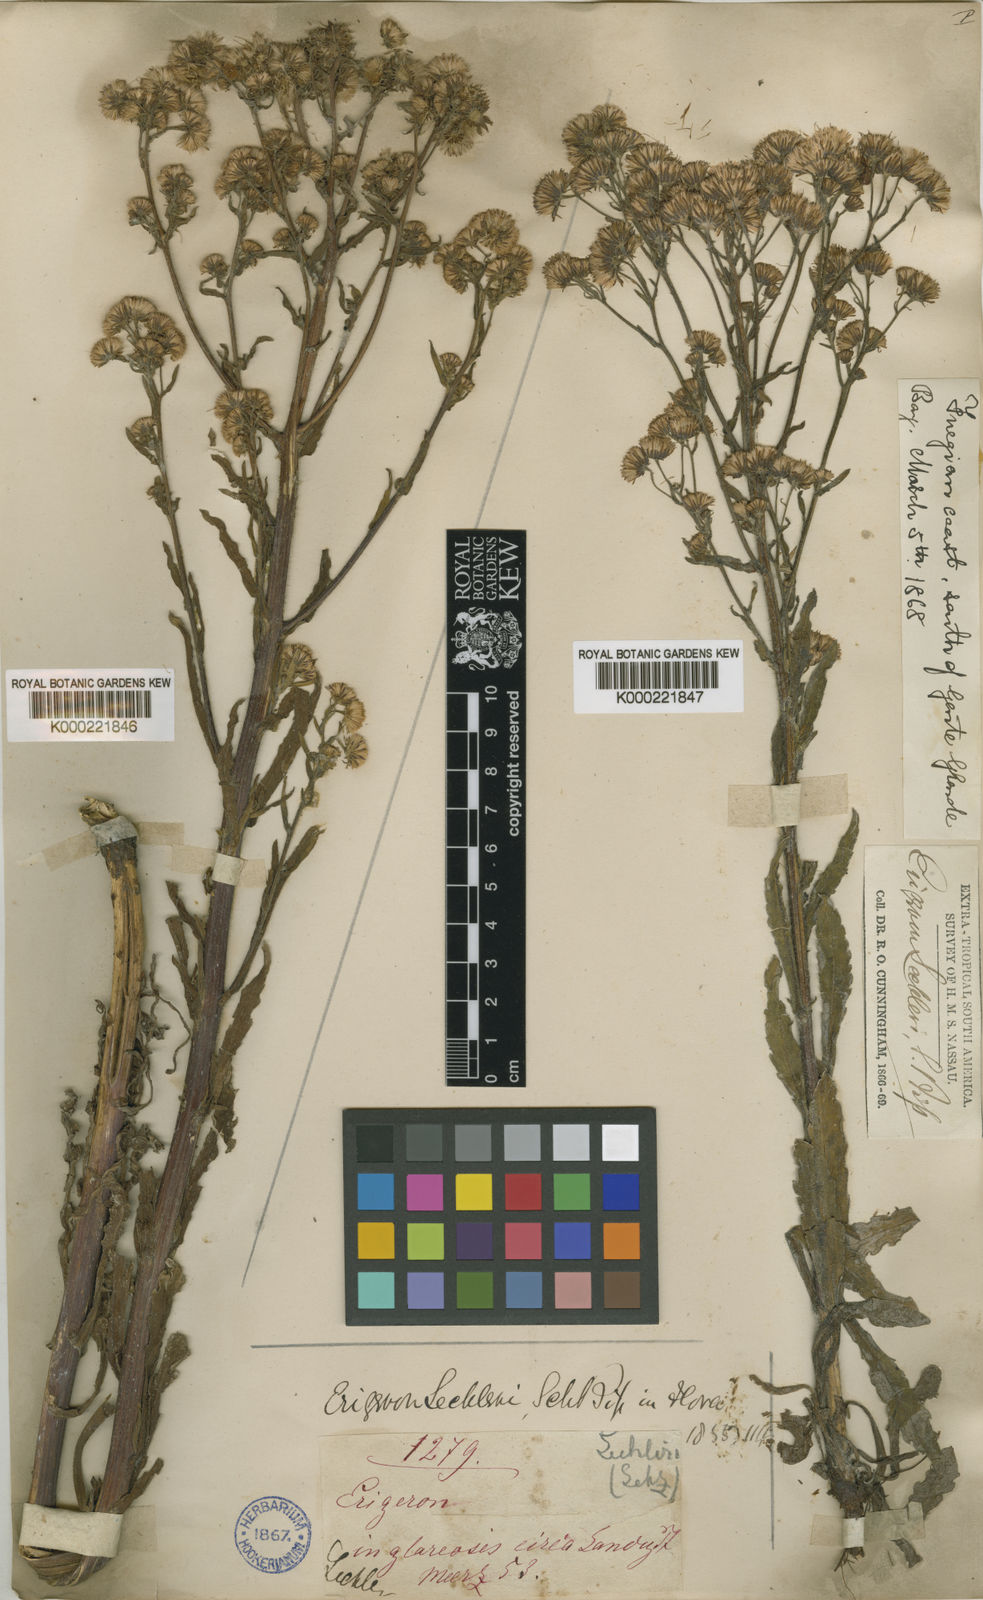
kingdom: Plantae
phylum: Tracheophyta
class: Magnoliopsida
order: Asterales
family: Asteraceae
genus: Erigeron
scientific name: Erigeron spiculosus
